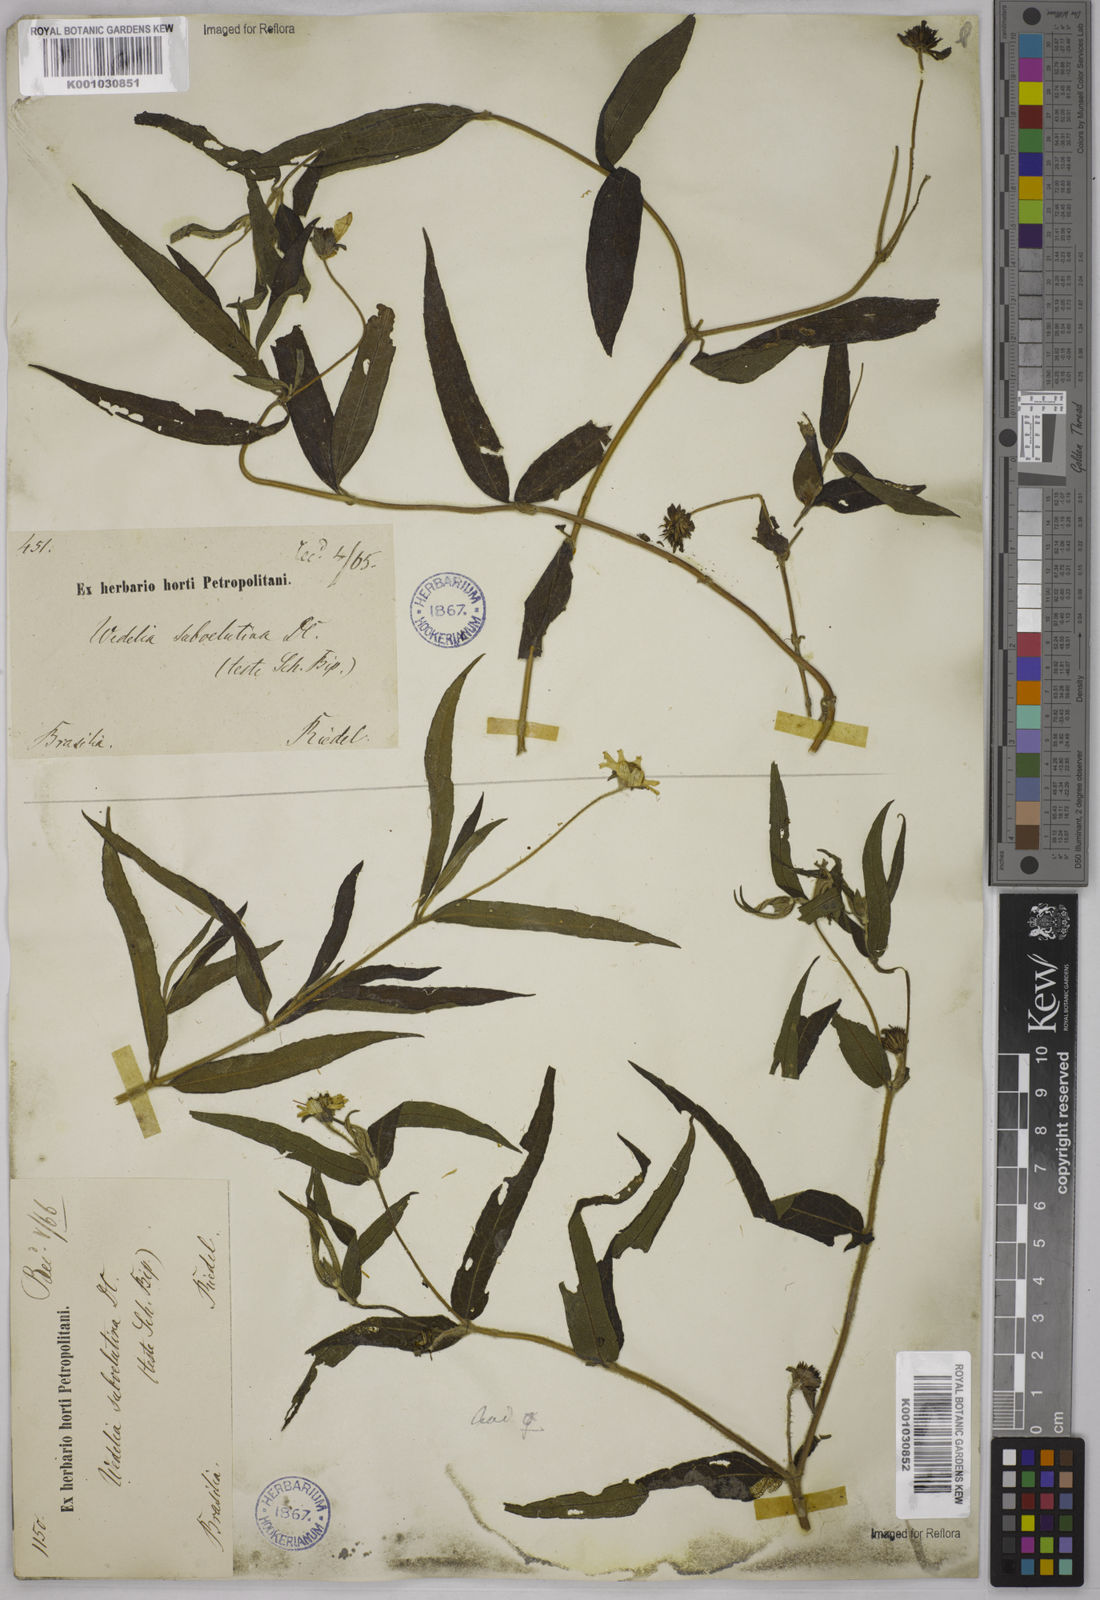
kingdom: Plantae
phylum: Tracheophyta
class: Magnoliopsida
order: Asterales
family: Asteraceae
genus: Wedelia
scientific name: Wedelia subvelutina
